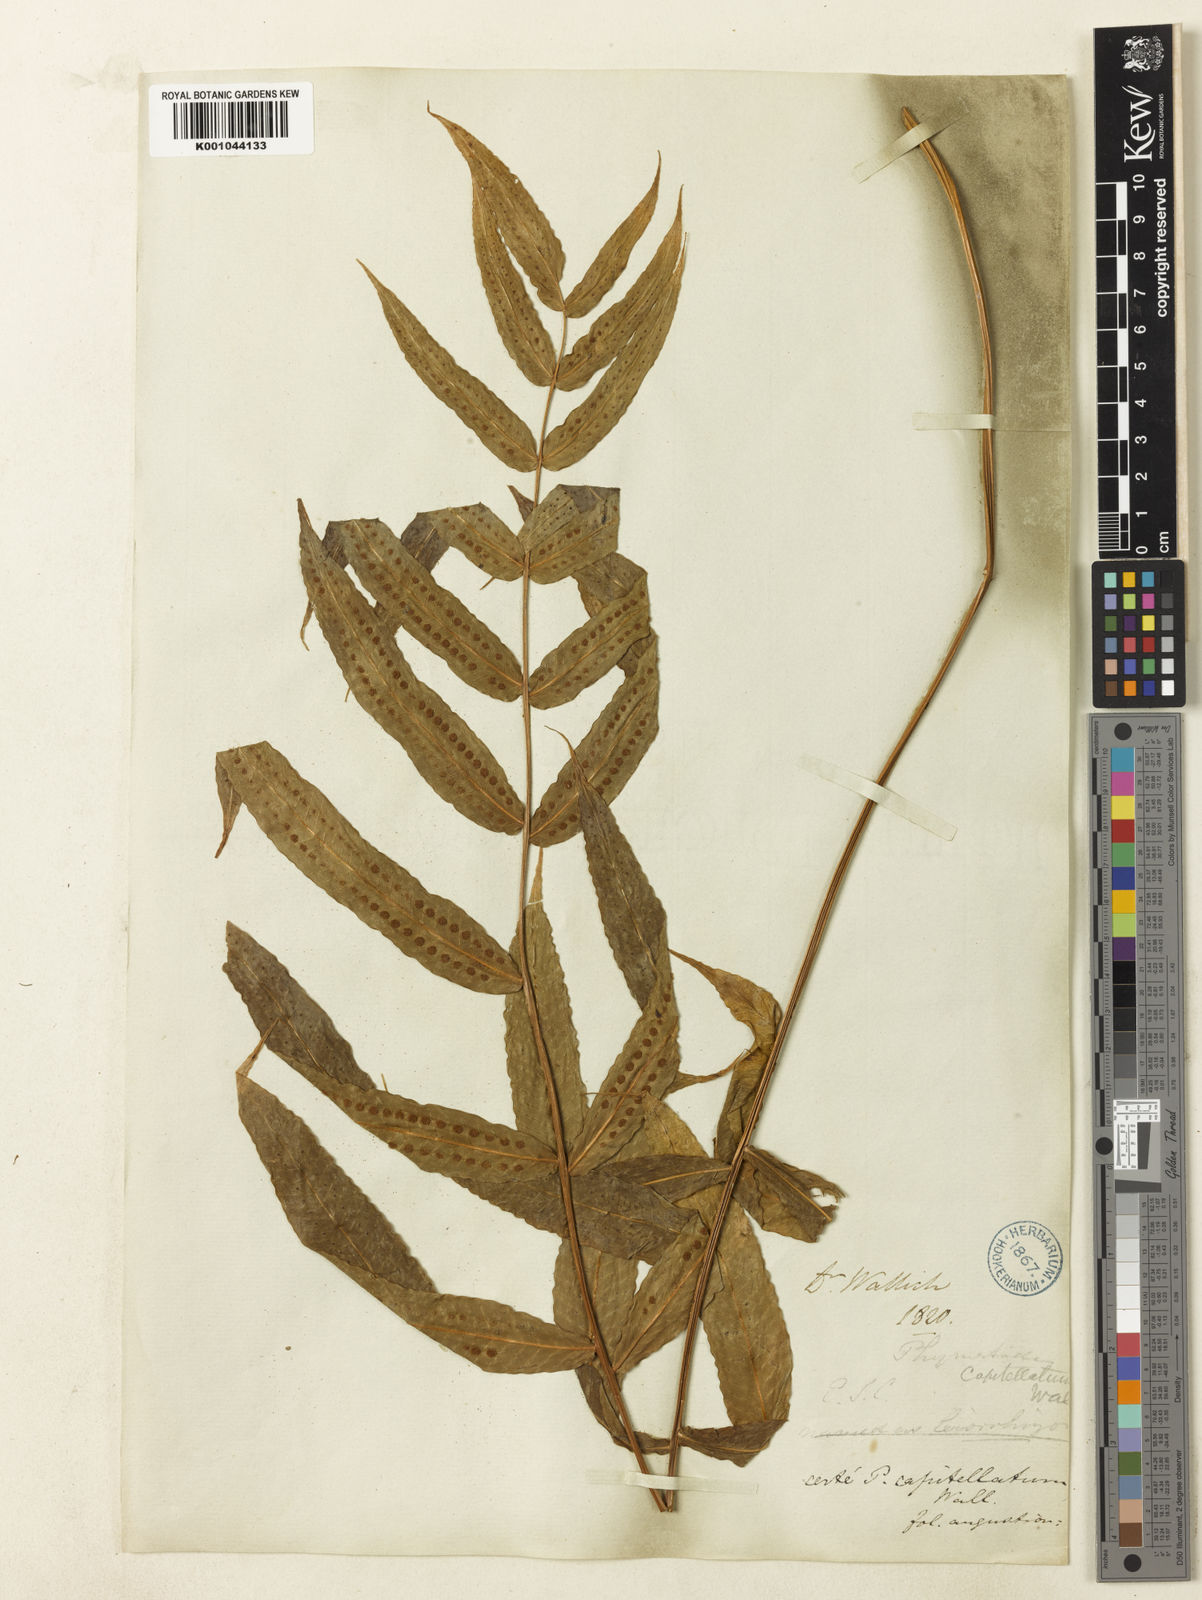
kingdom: Plantae
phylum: Tracheophyta
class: Polypodiopsida
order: Polypodiales
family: Polypodiaceae
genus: Selliguea
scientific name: Selliguea capitellata
